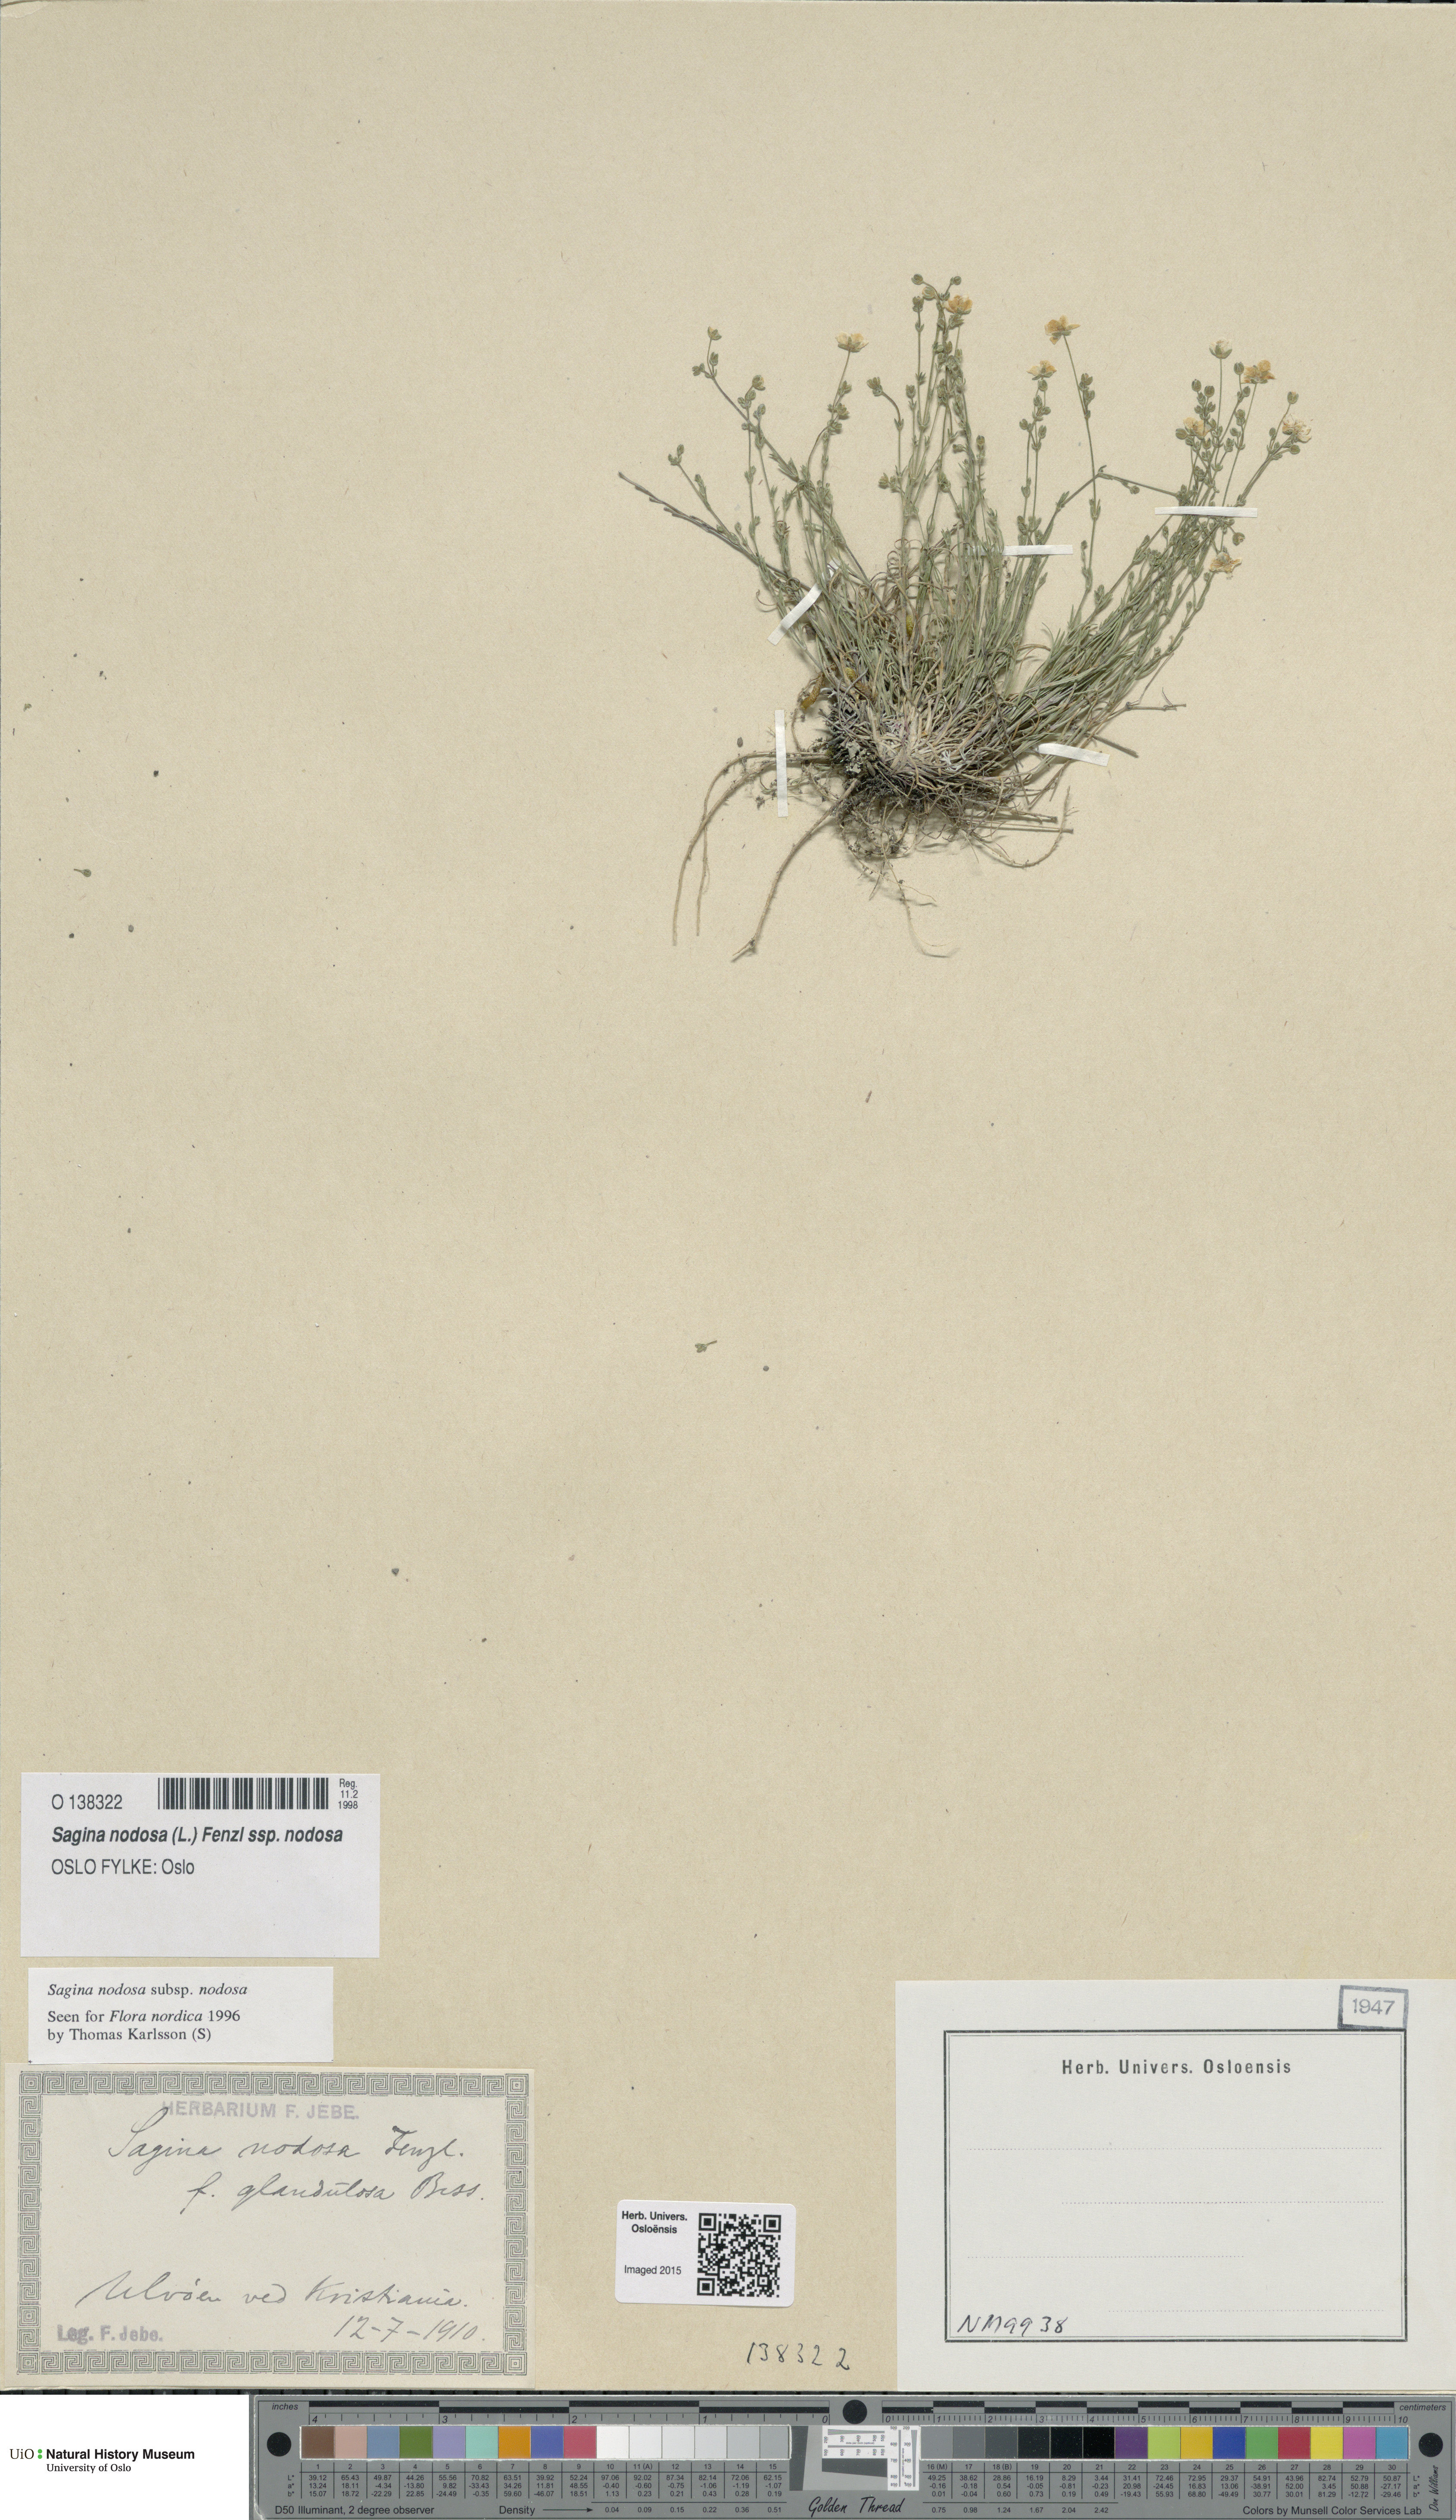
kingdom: Plantae
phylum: Tracheophyta
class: Magnoliopsida
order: Caryophyllales
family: Caryophyllaceae
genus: Sagina
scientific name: Sagina nodosa
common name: Knotted pearlwort
